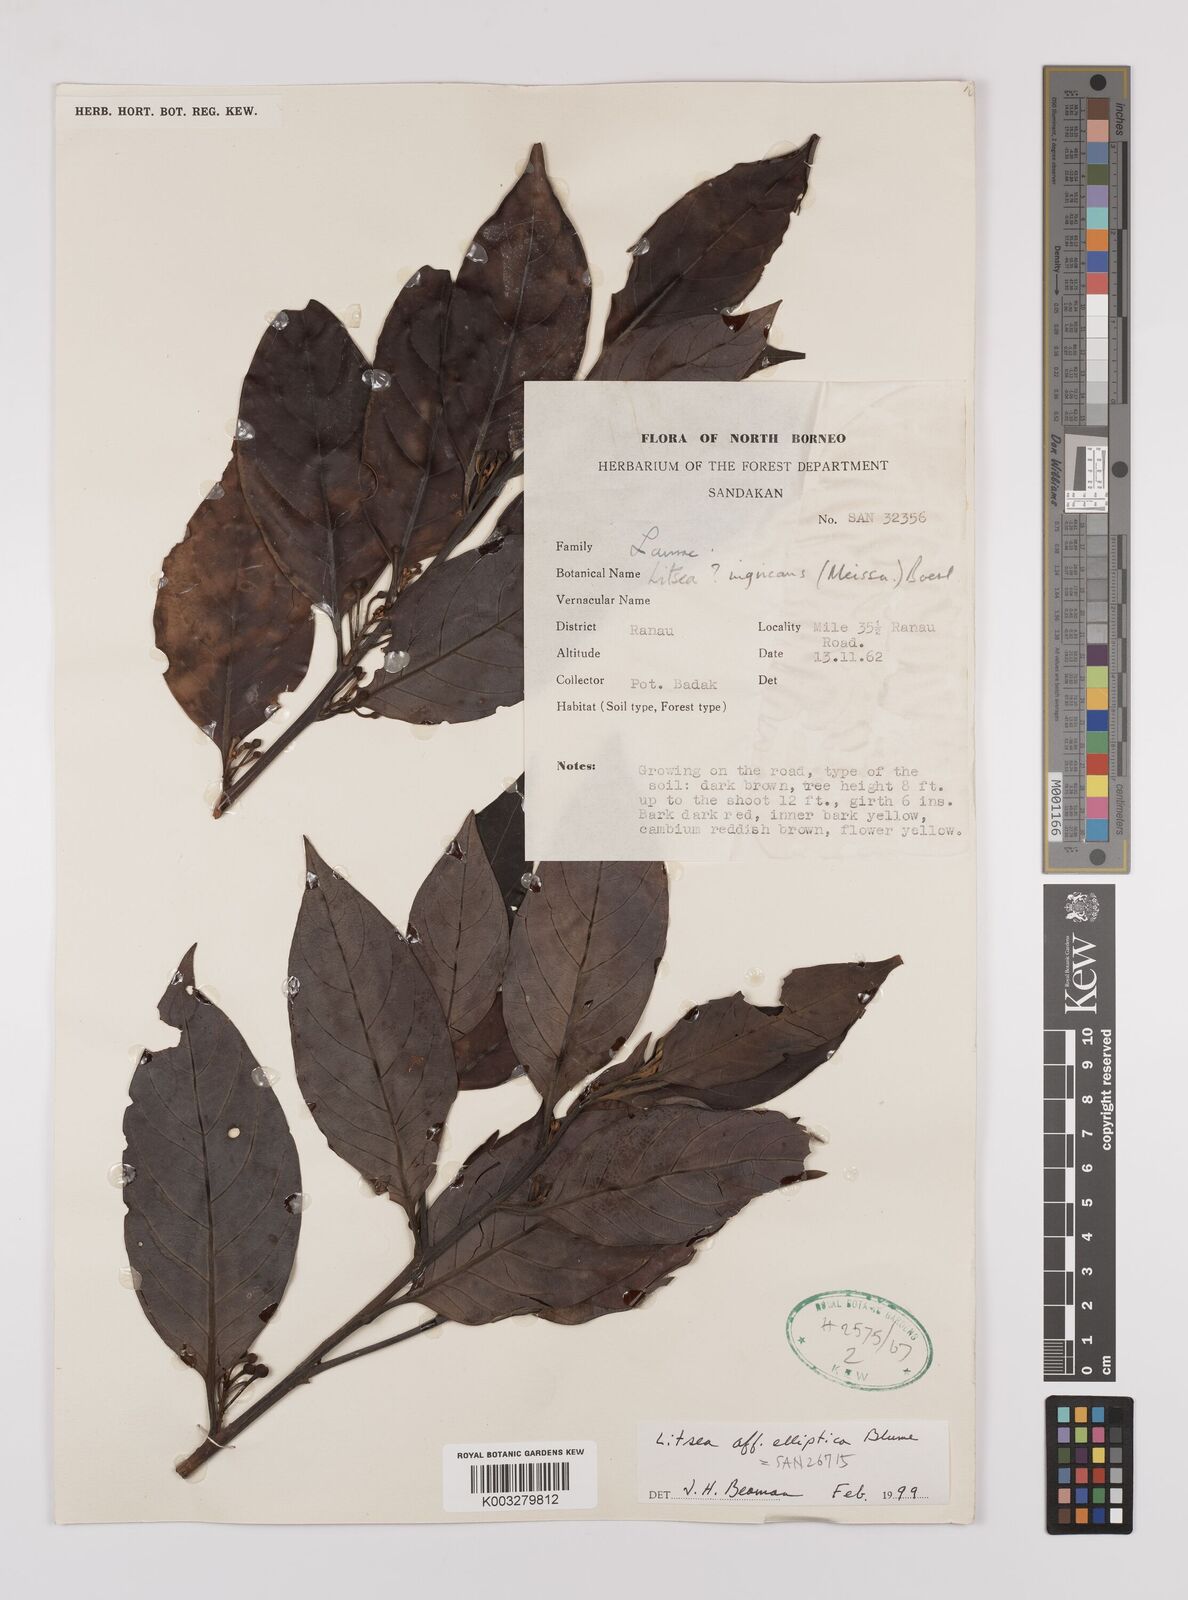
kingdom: Plantae
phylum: Tracheophyta
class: Magnoliopsida
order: Laurales
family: Lauraceae
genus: Litsea
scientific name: Litsea elliptica
